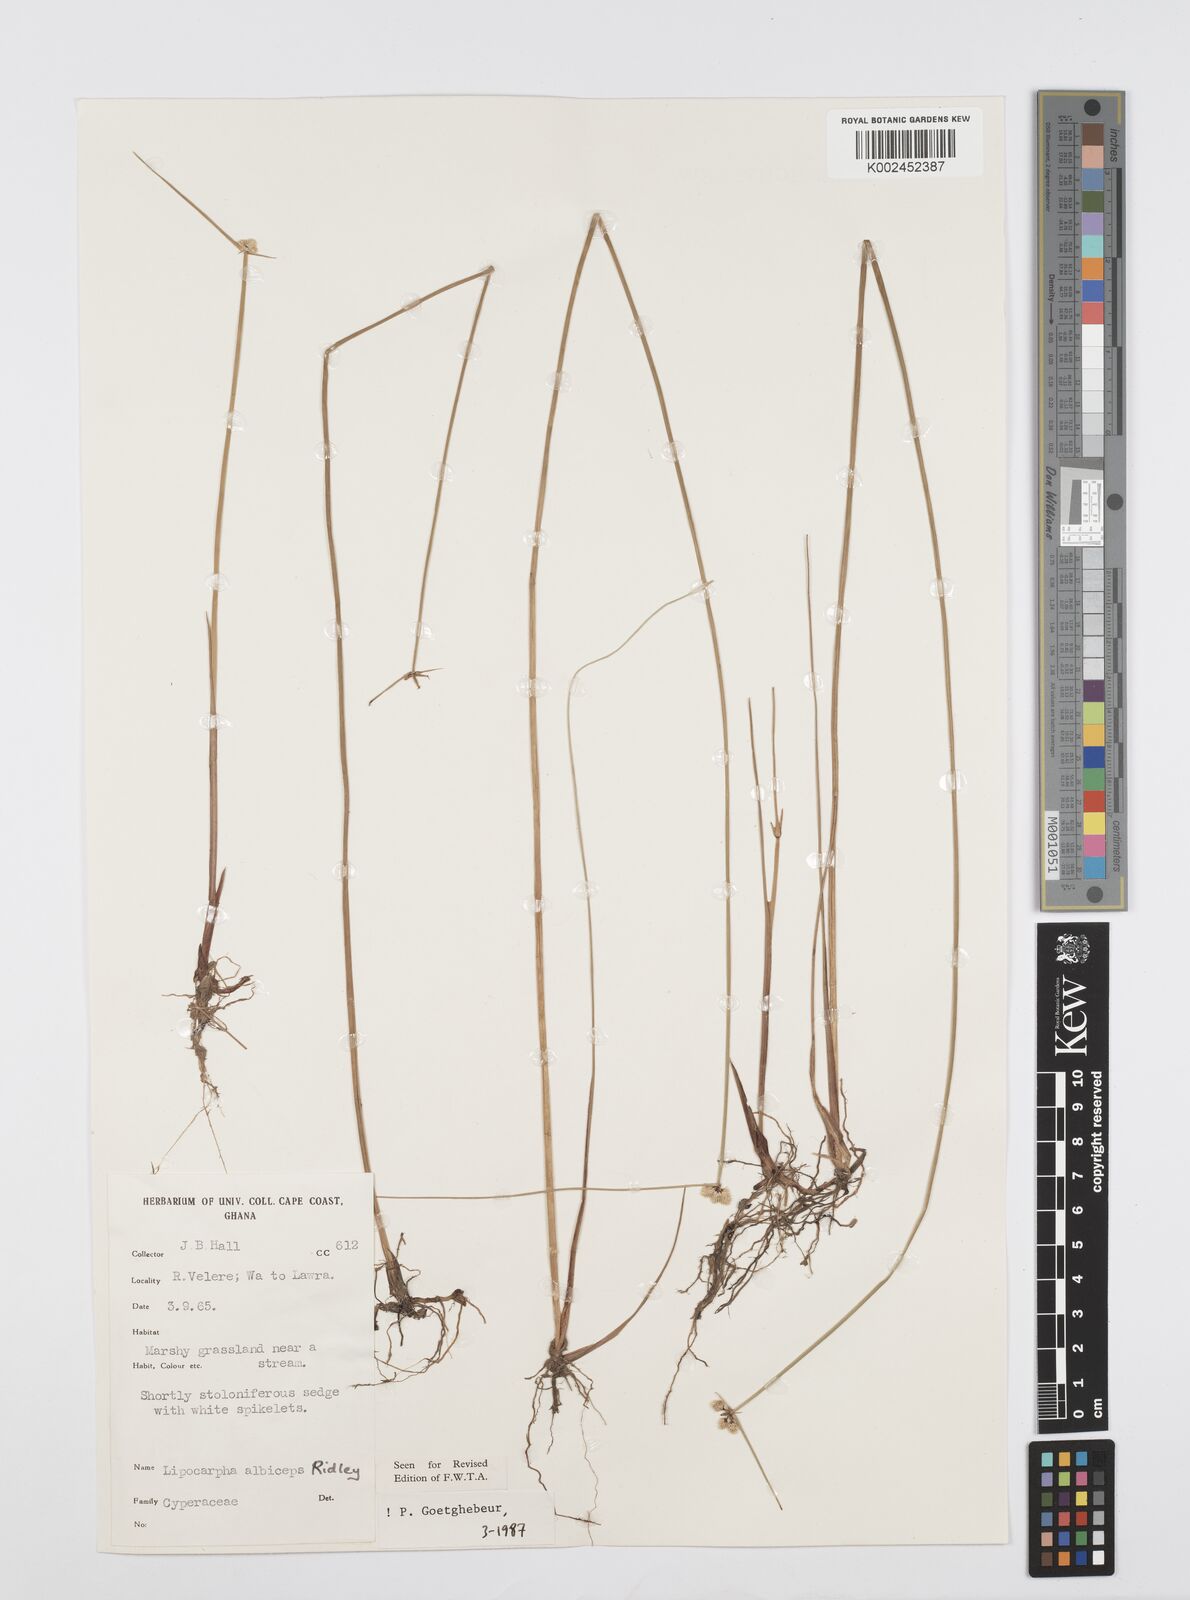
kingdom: Plantae
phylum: Tracheophyta
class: Liliopsida
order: Poales
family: Cyperaceae
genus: Cyperus
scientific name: Cyperus albiceps
